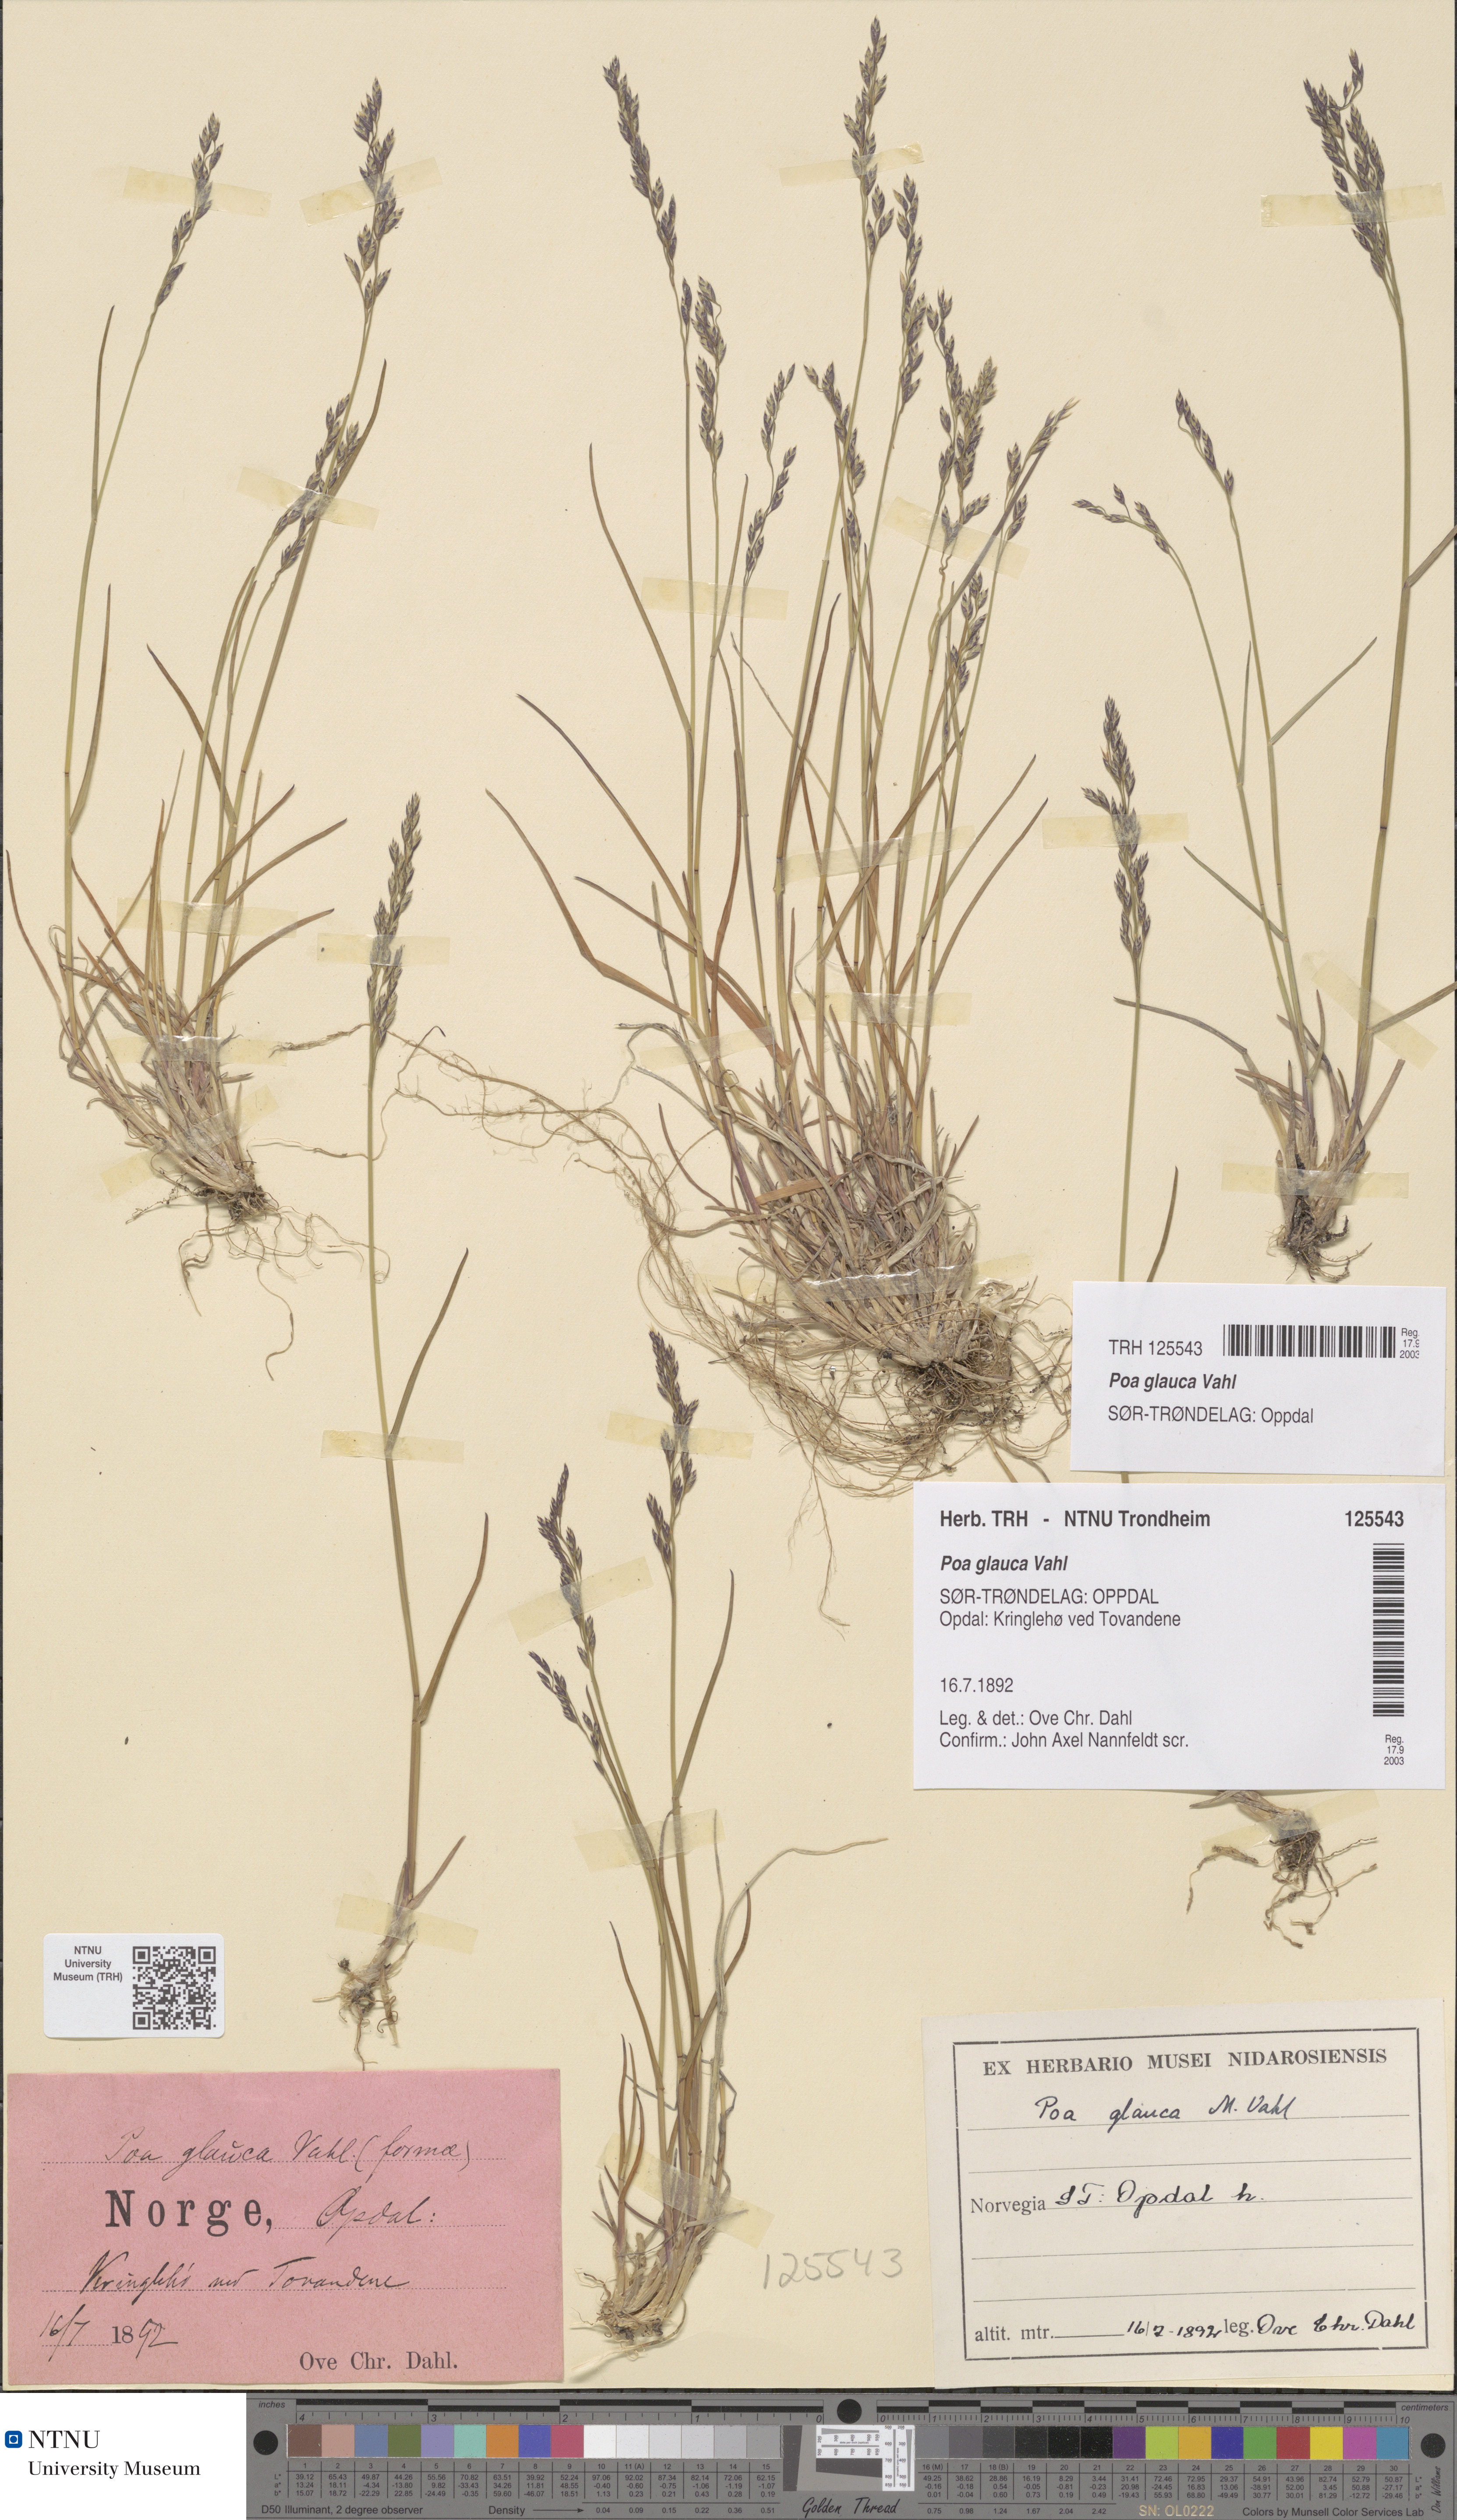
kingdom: Plantae
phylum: Tracheophyta
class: Liliopsida
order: Poales
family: Poaceae
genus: Poa
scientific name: Poa glauca
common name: Glaucous bluegrass
